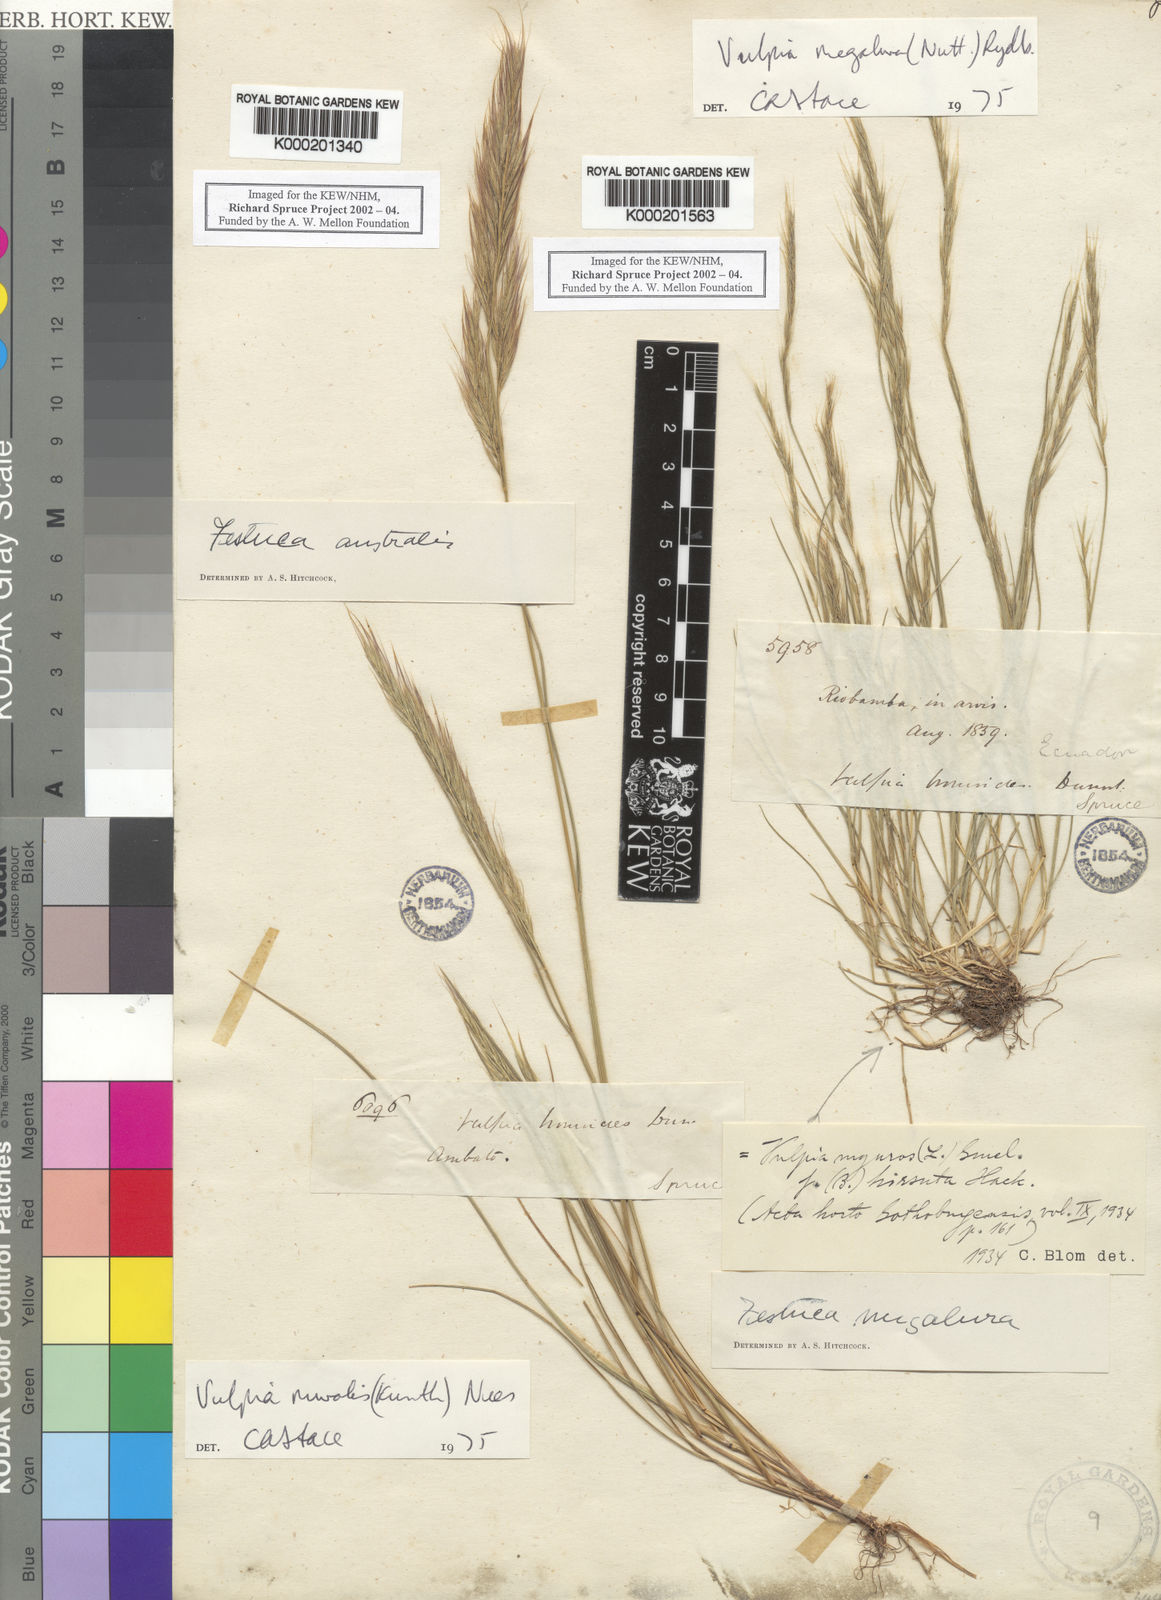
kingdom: Plantae
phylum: Tracheophyta
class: Liliopsida
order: Poales
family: Poaceae
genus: Festuca
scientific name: Festuca
